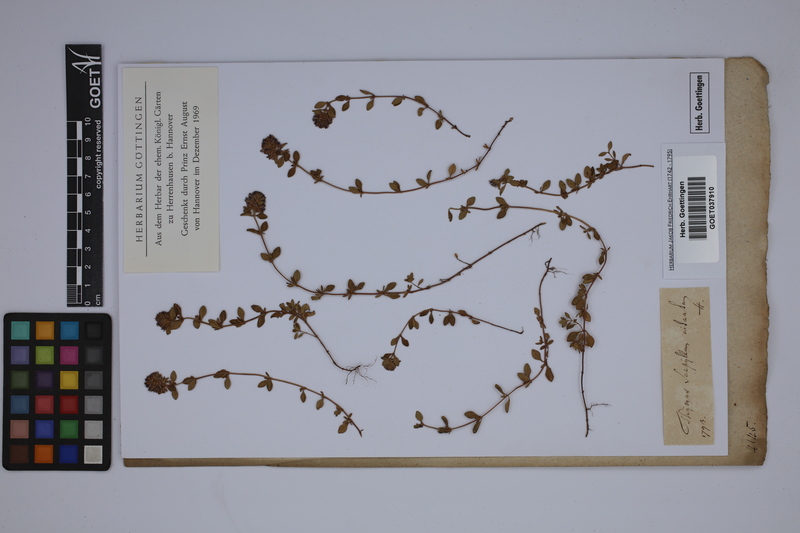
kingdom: Plantae
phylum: Tracheophyta
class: Magnoliopsida
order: Lamiales
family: Lamiaceae
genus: Thymus
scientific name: Thymus serpyllum
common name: Breckland thyme
